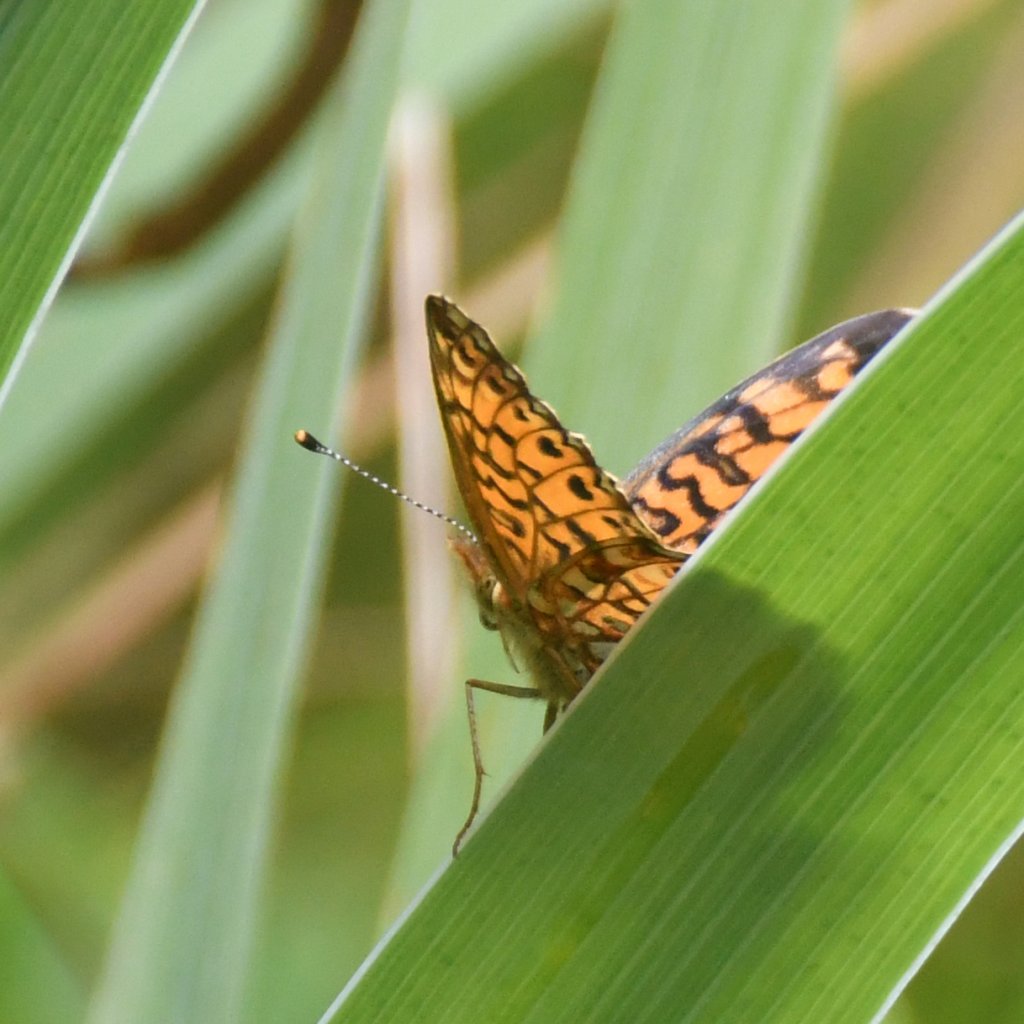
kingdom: Animalia
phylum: Arthropoda
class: Insecta
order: Lepidoptera
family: Nymphalidae
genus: Boloria
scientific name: Boloria selene
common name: Silver-bordered Fritillary
